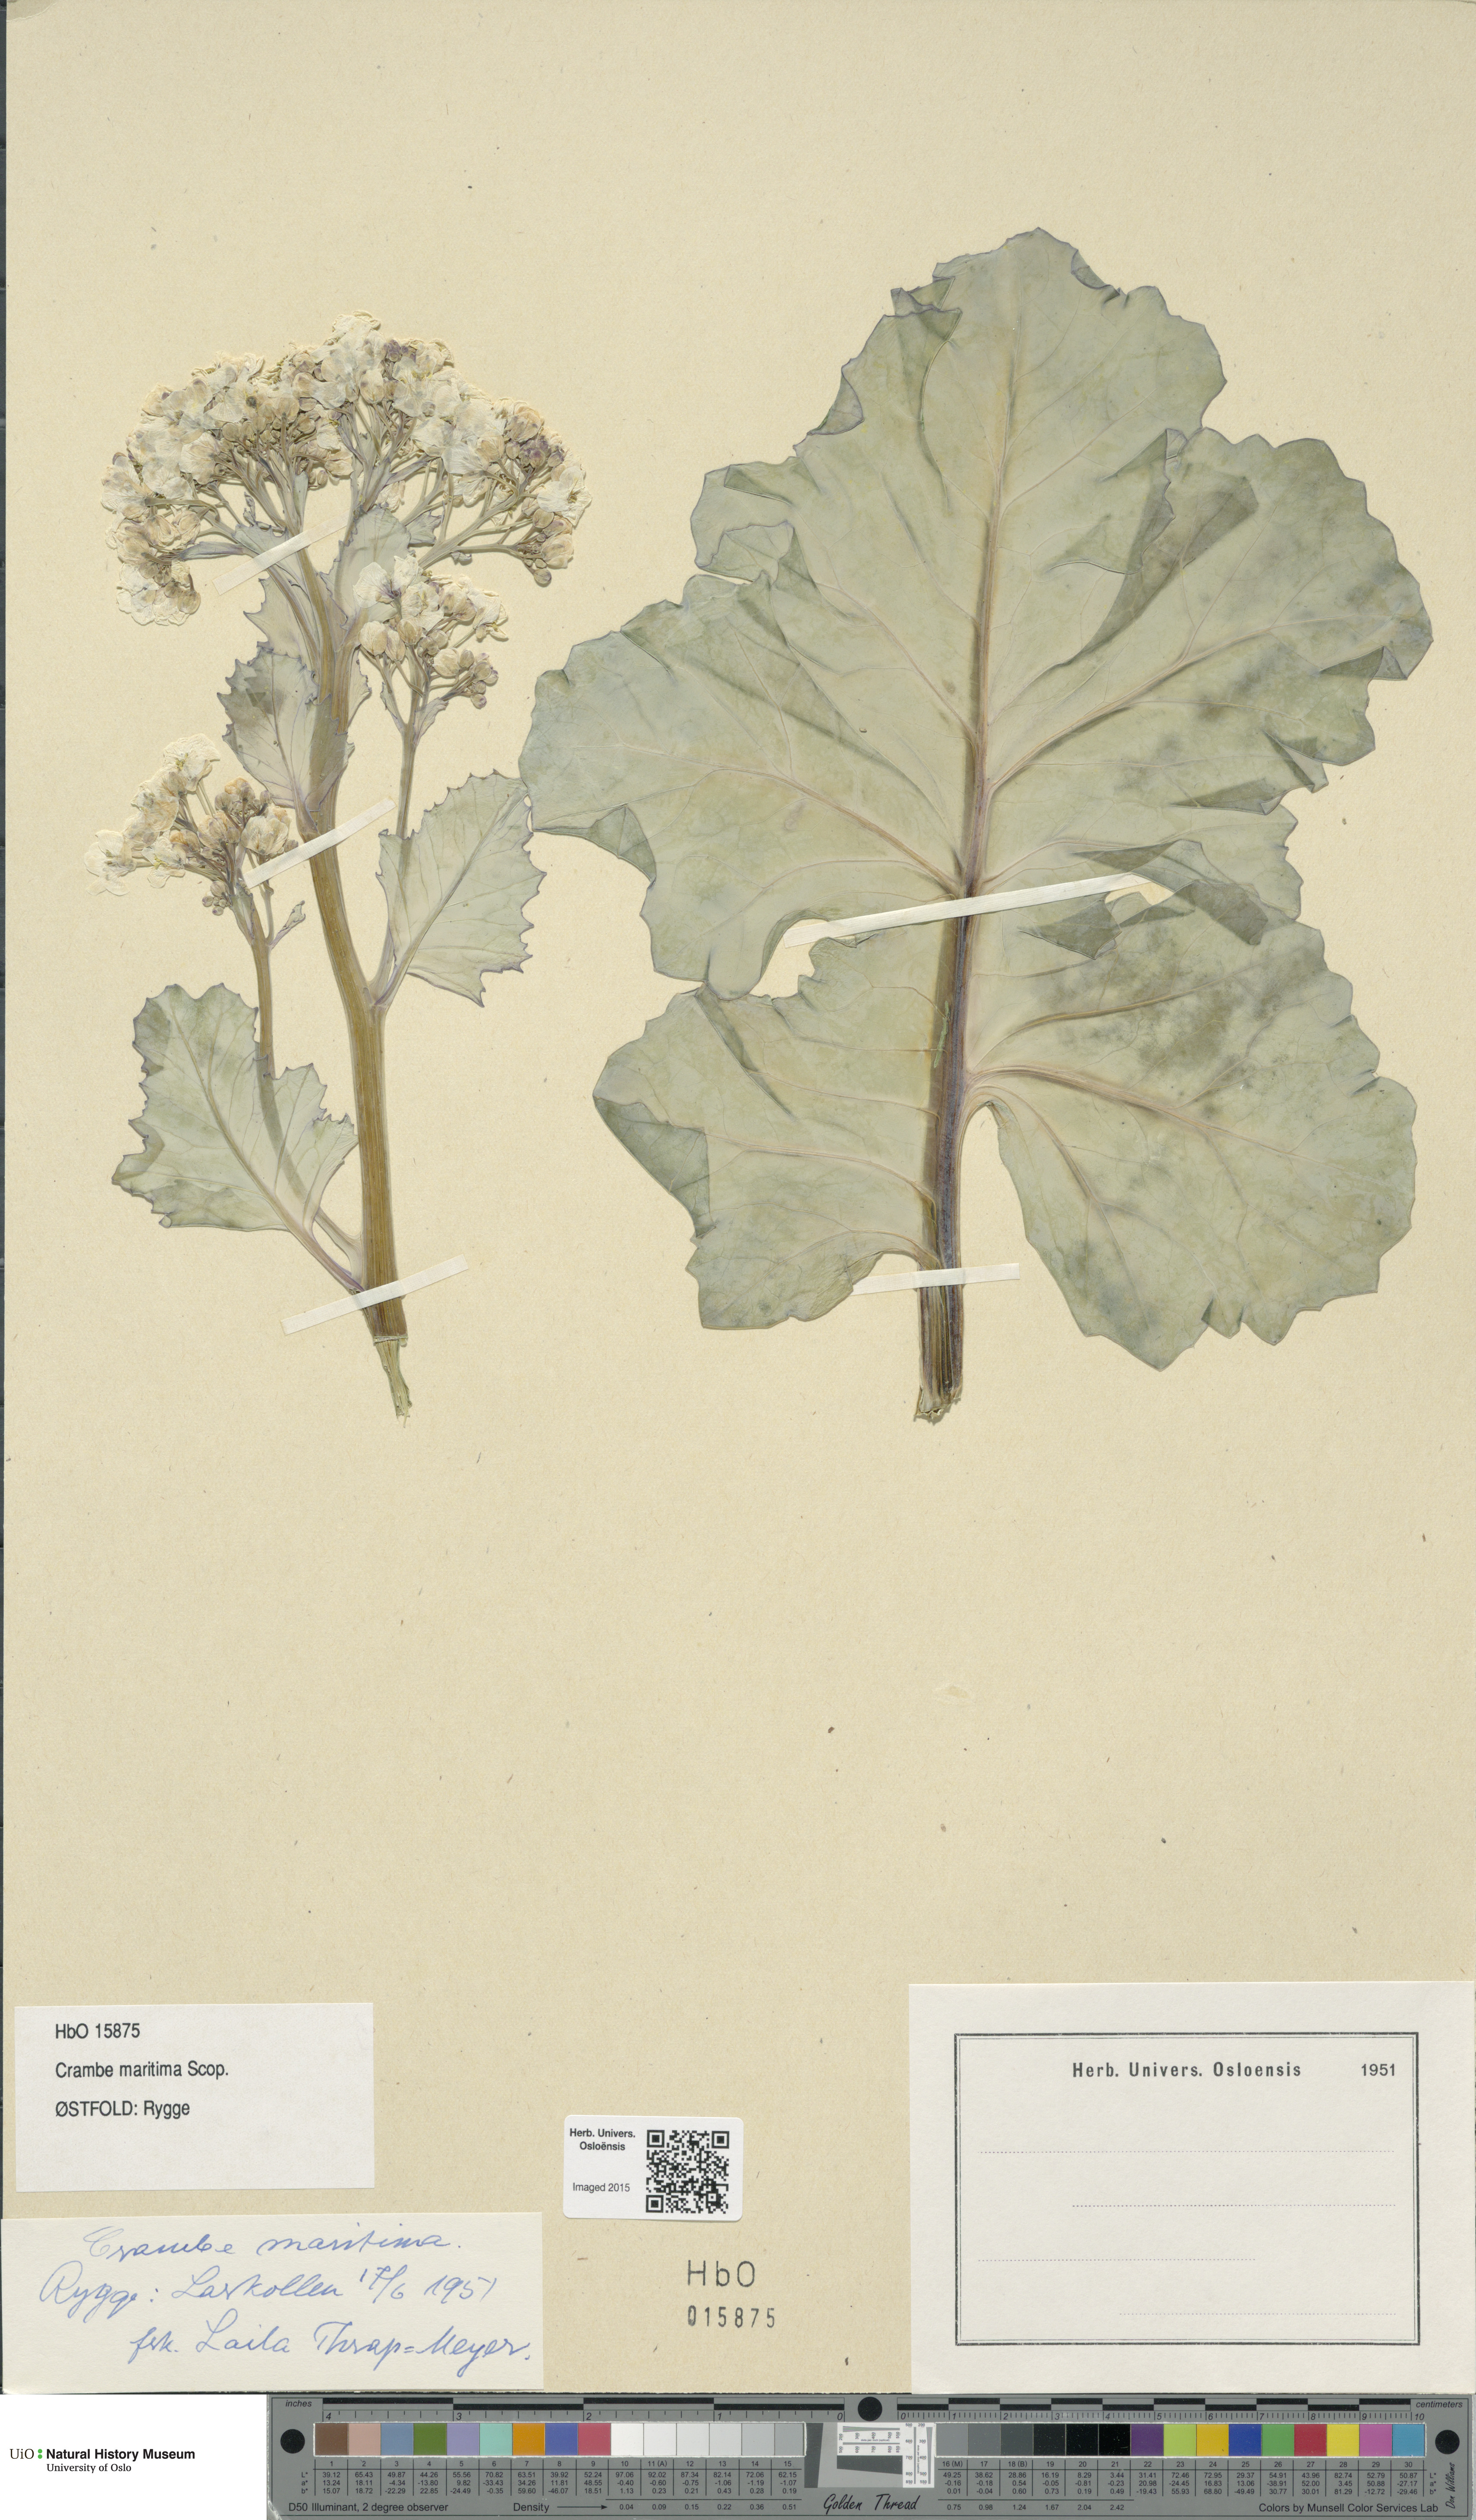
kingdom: Plantae
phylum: Tracheophyta
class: Magnoliopsida
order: Brassicales
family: Brassicaceae
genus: Crambe
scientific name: Crambe maritima
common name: Sea-kale
